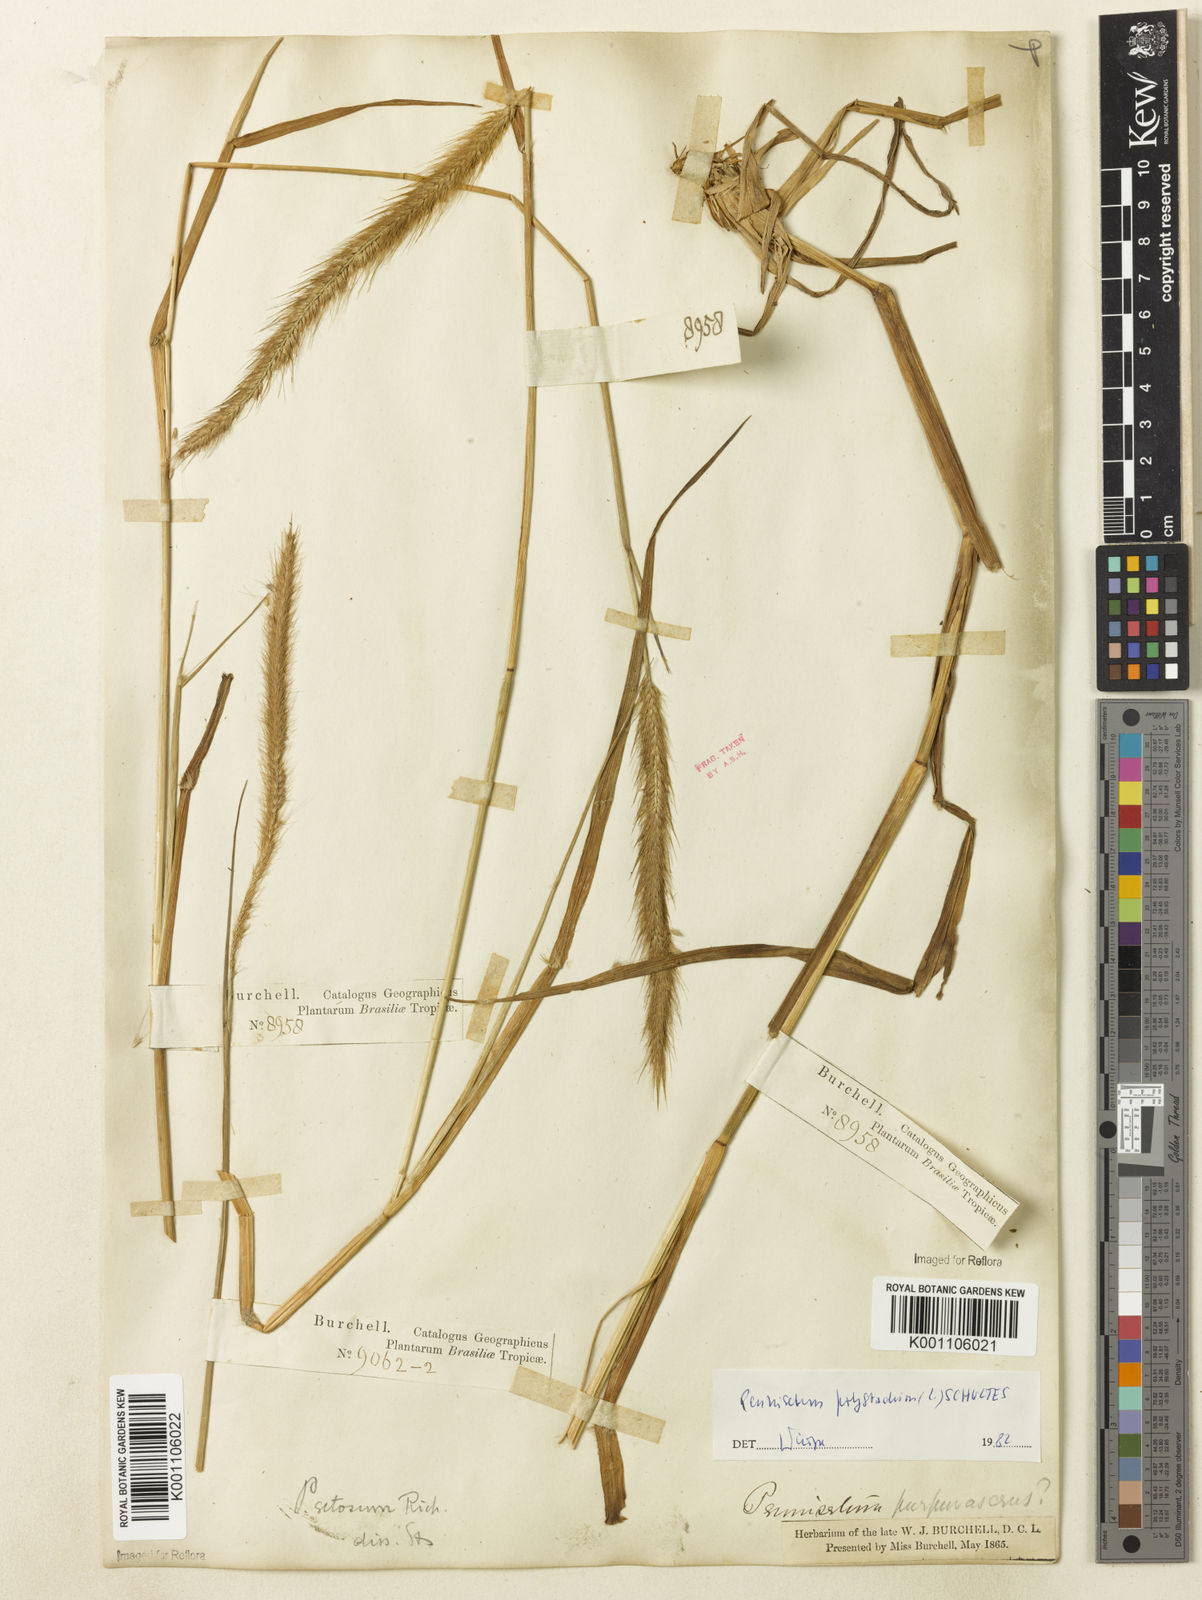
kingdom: Plantae
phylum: Tracheophyta
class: Liliopsida
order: Poales
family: Poaceae
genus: Setaria
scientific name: Setaria parviflora
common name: Knotroot bristle-grass
